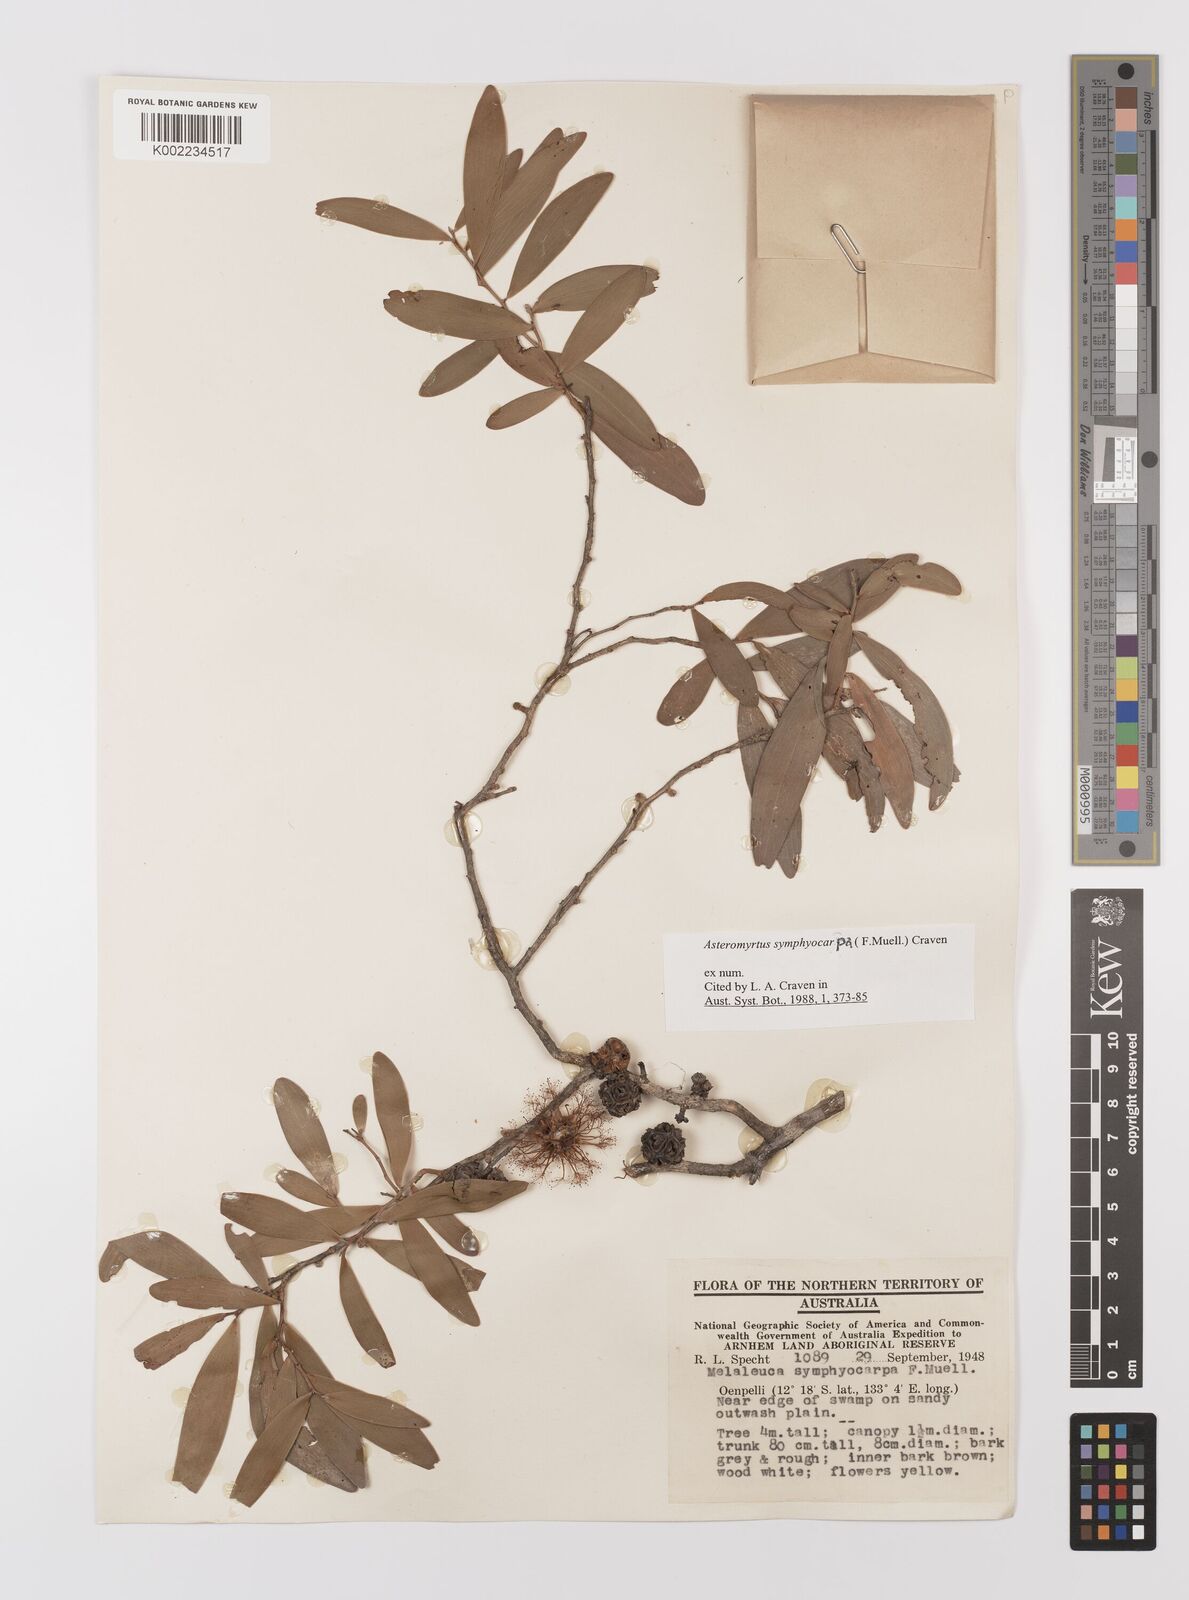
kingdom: Plantae
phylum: Tracheophyta
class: Magnoliopsida
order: Myrtales
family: Myrtaceae
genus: Asteromyrtus
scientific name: Asteromyrtus symphyocarpa
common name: Liniment-tree
